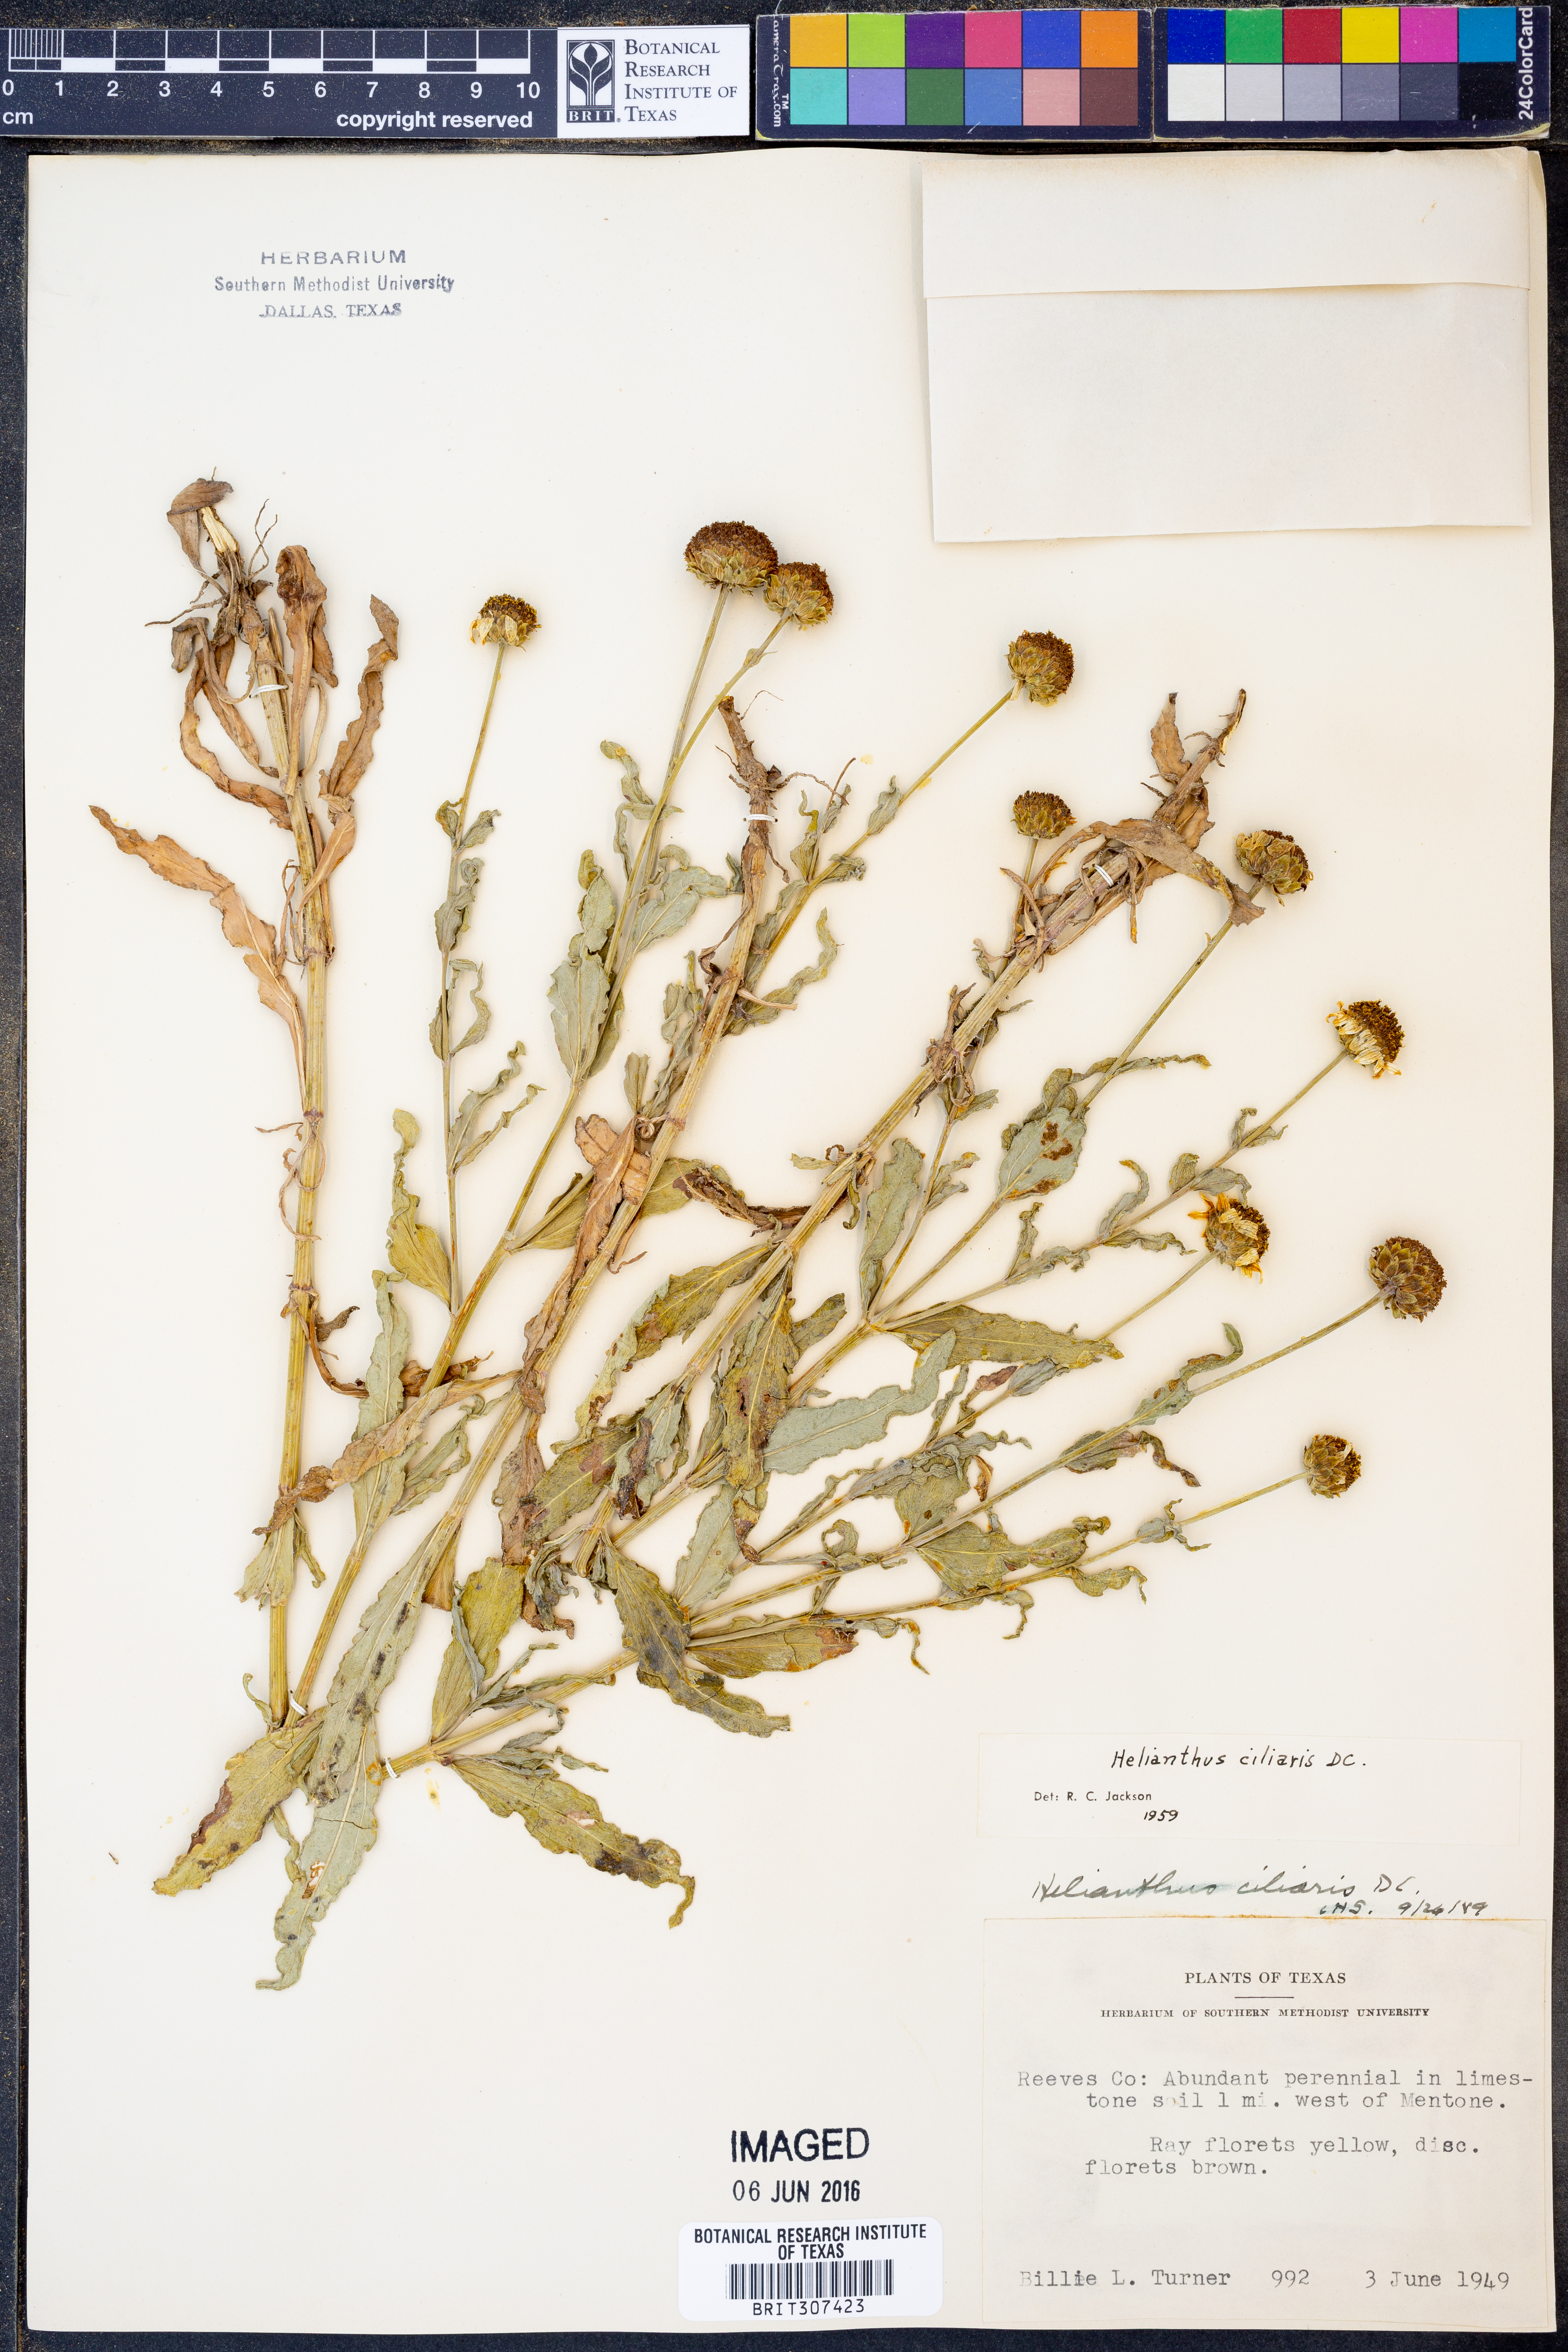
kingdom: Plantae
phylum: Tracheophyta
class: Magnoliopsida
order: Asterales
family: Asteraceae
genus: Helianthus
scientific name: Helianthus ciliaris
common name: Texas blueweed
